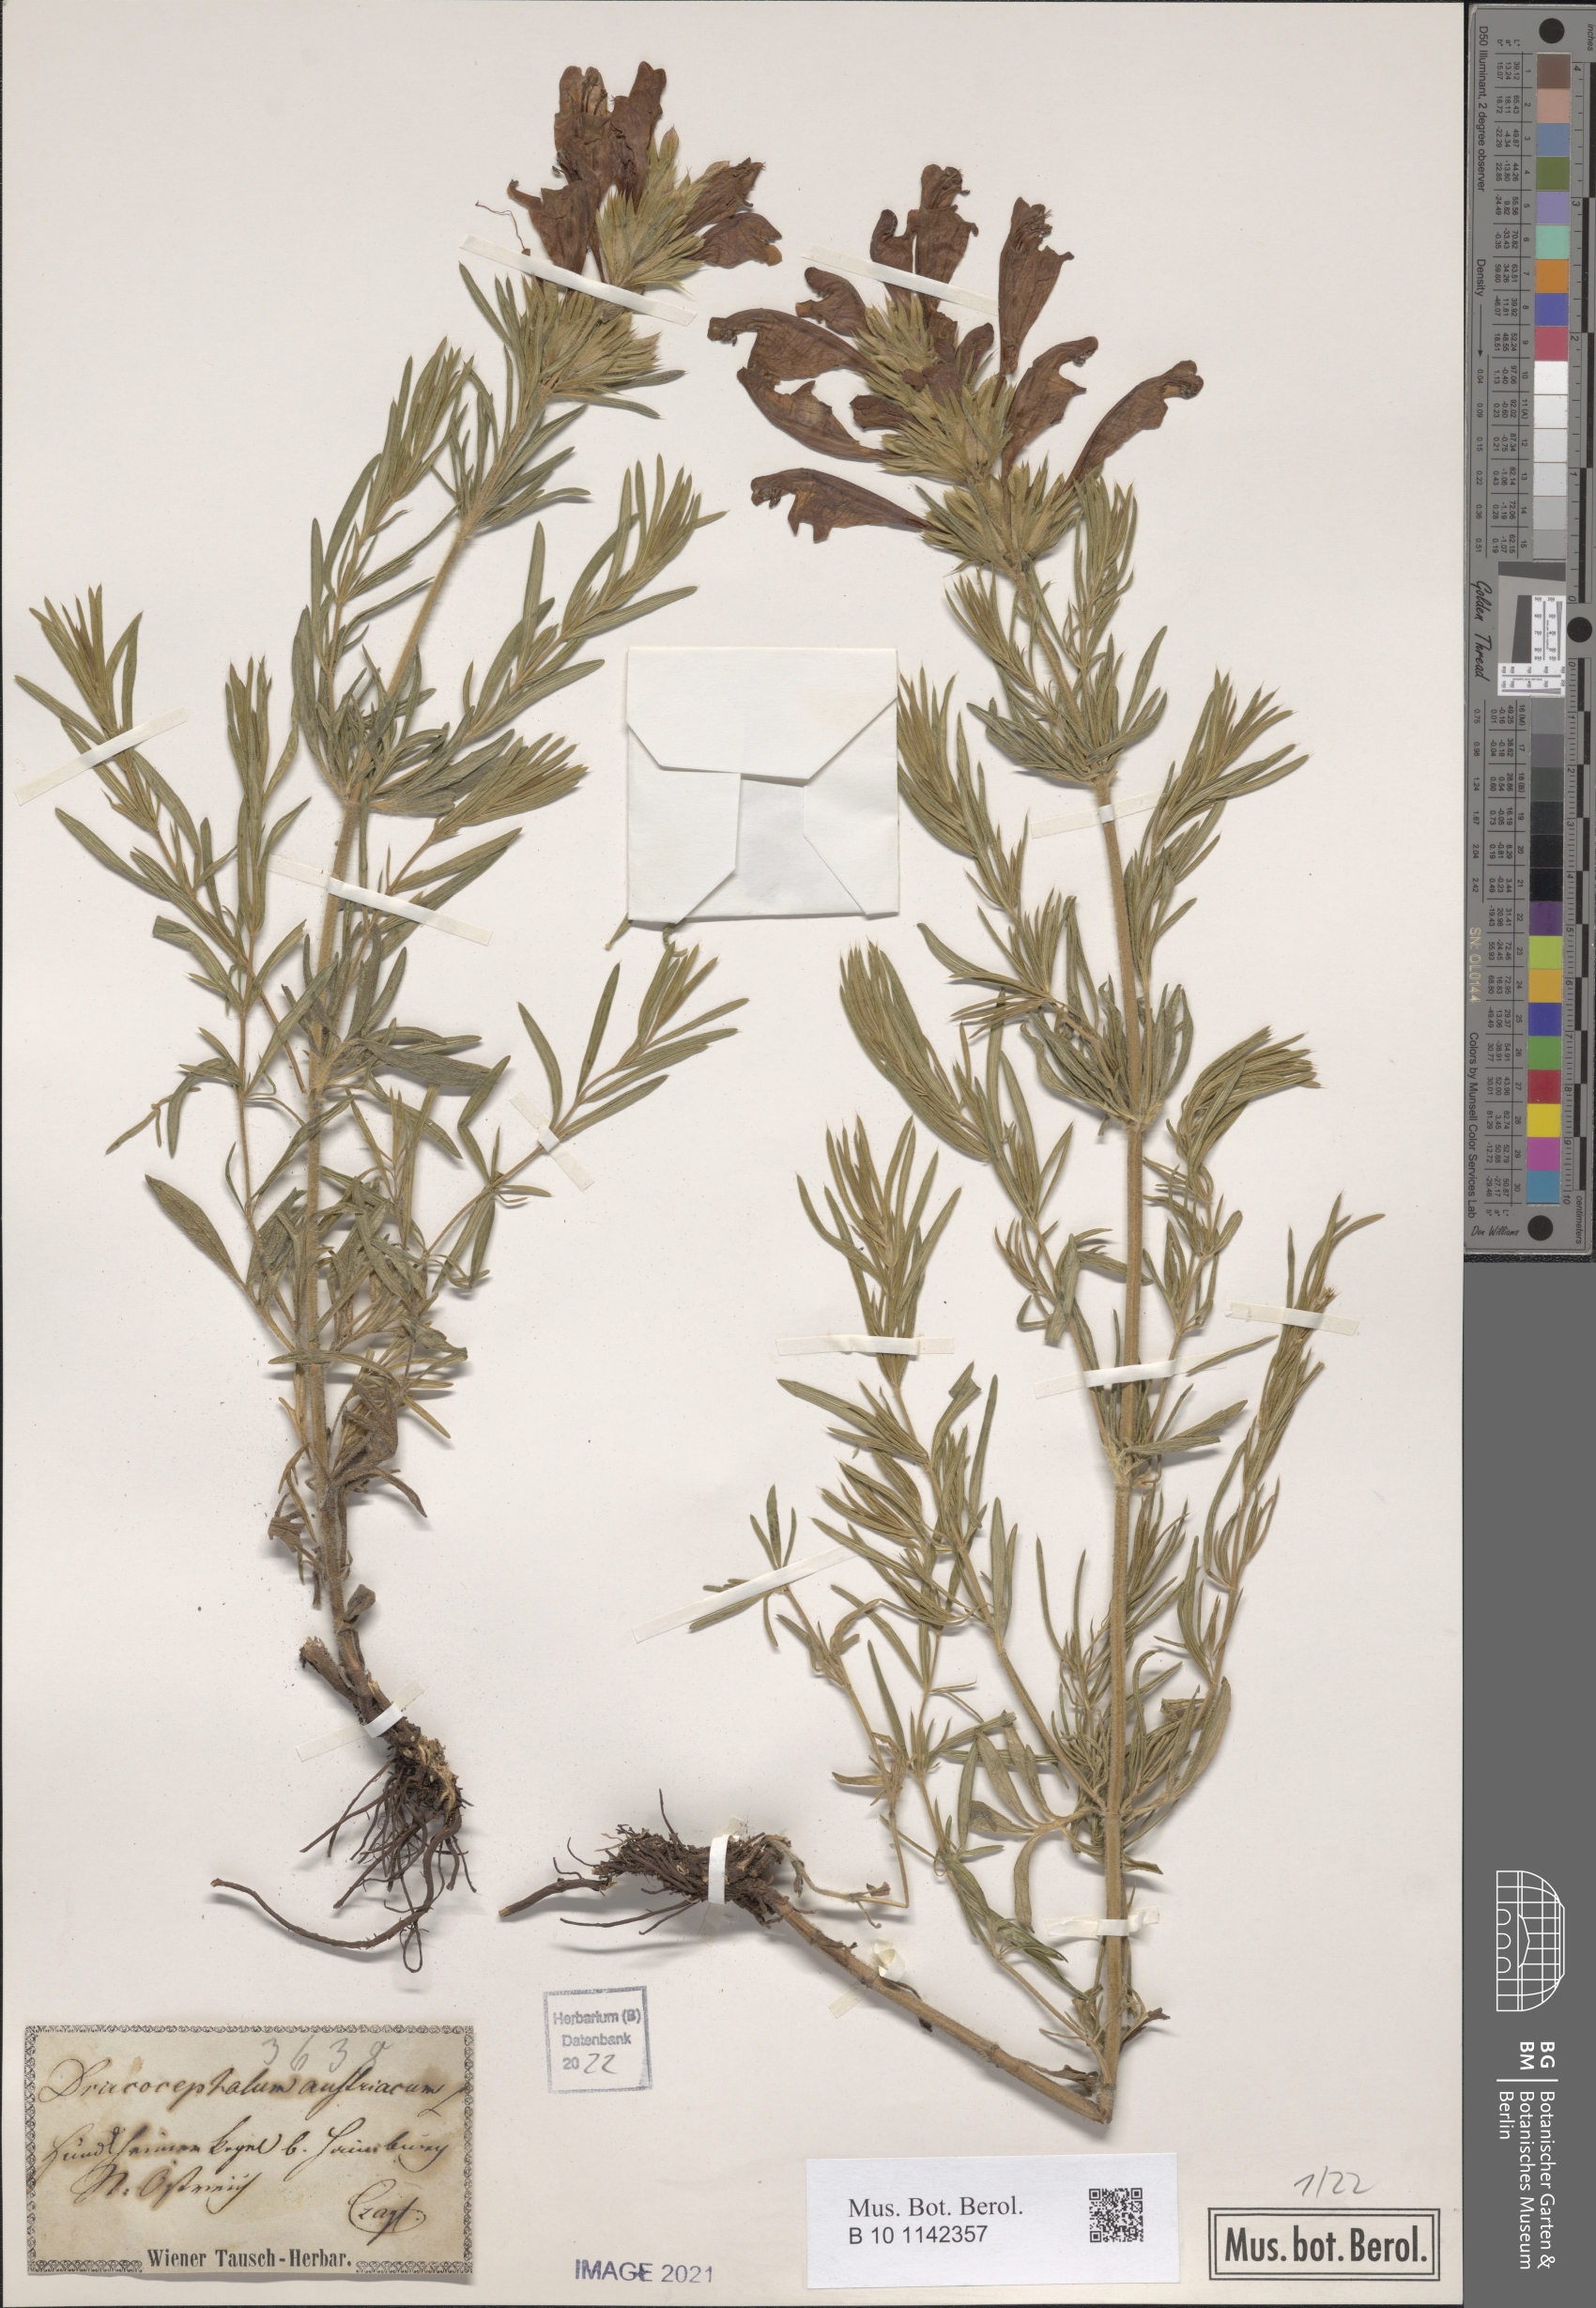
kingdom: Plantae
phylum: Tracheophyta
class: Magnoliopsida
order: Lamiales
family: Lamiaceae
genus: Dracocephalum
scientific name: Dracocephalum austriacum
